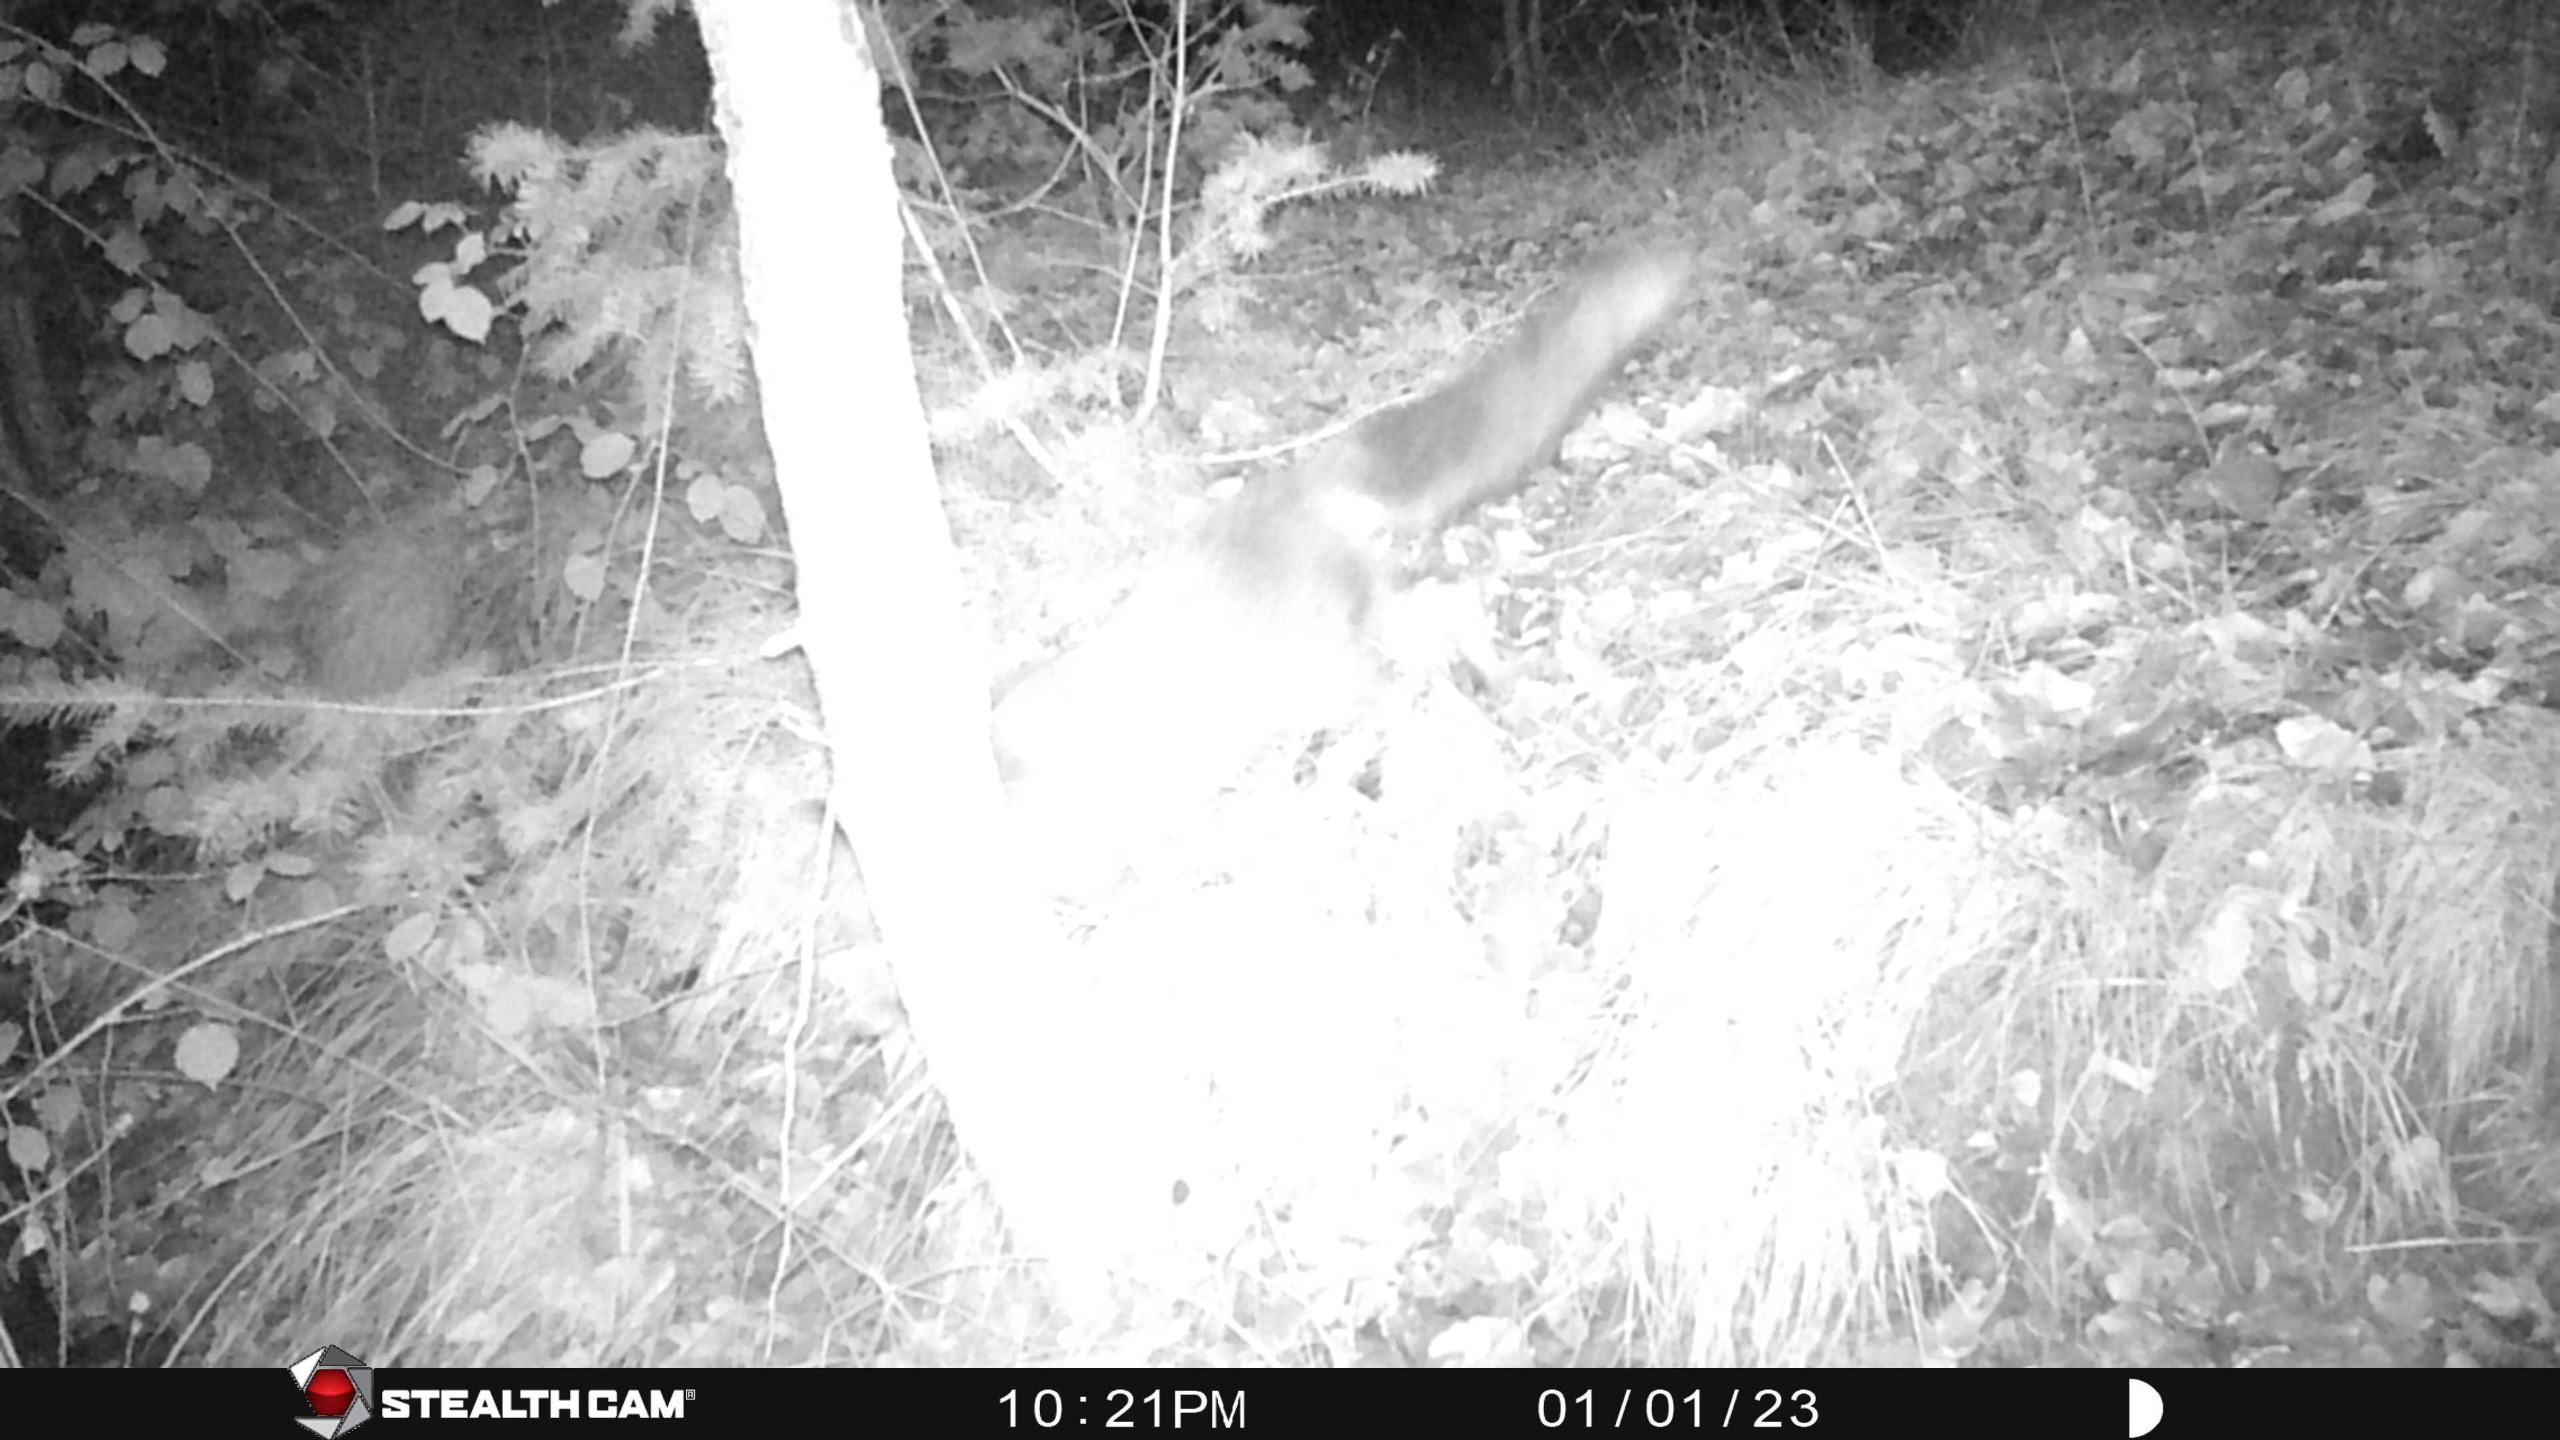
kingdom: Animalia
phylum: Chordata
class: Mammalia
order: Carnivora
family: Canidae
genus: Vulpes
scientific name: Vulpes vulpes
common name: Ræv
